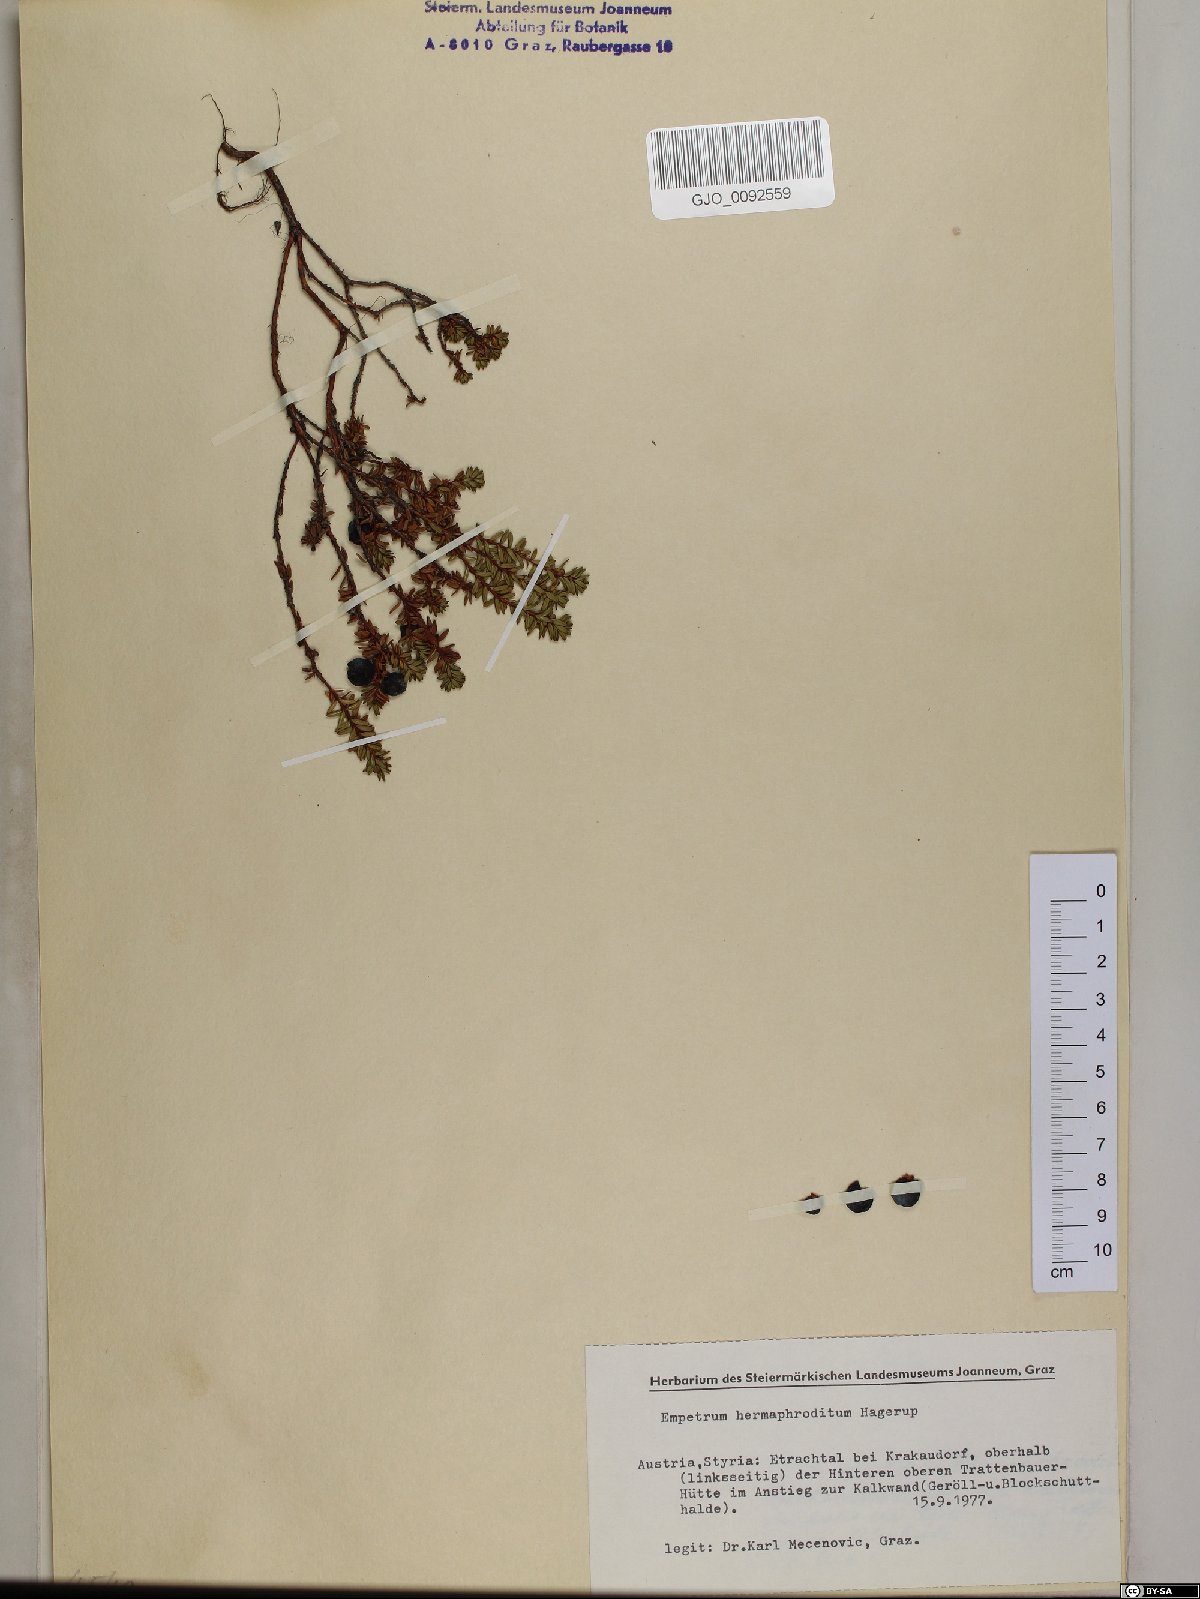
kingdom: Plantae
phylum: Tracheophyta
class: Magnoliopsida
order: Ericales
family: Ericaceae
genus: Empetrum
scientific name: Empetrum hermaphroditum
